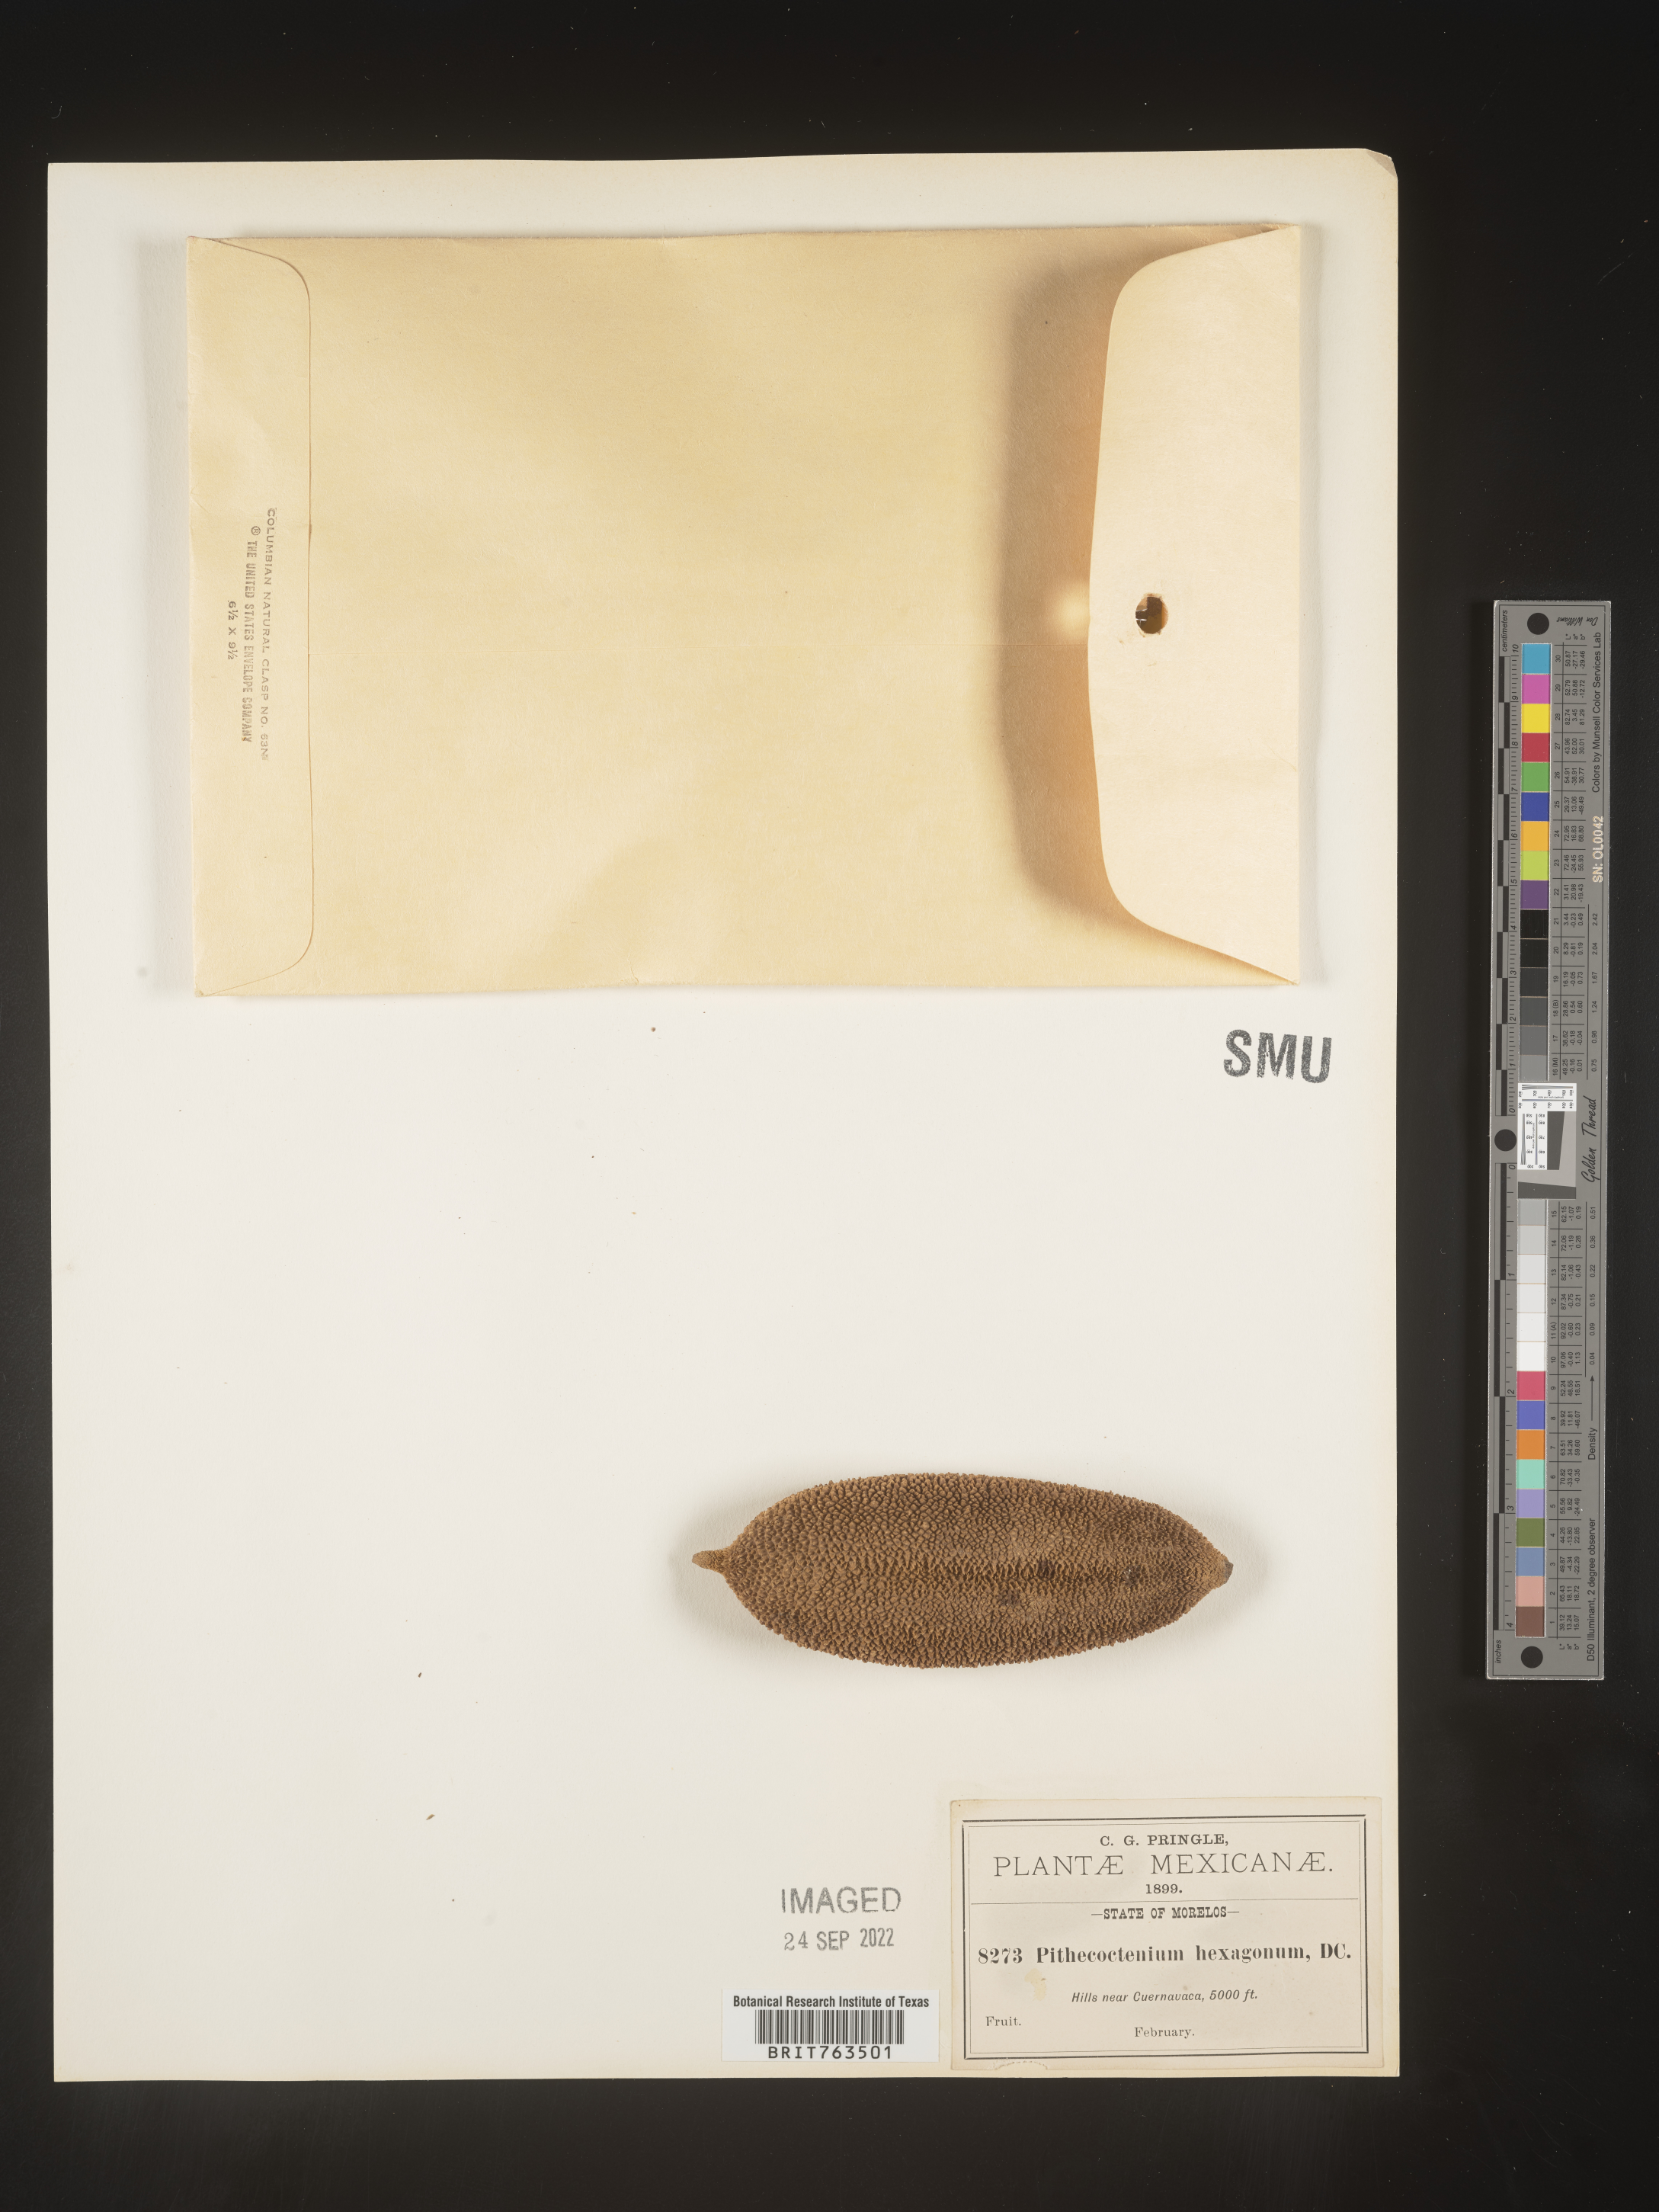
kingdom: Plantae
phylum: Tracheophyta
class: Magnoliopsida
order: Lamiales
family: Bignoniaceae
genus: Pithecoctenium
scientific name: Pithecoctenium
